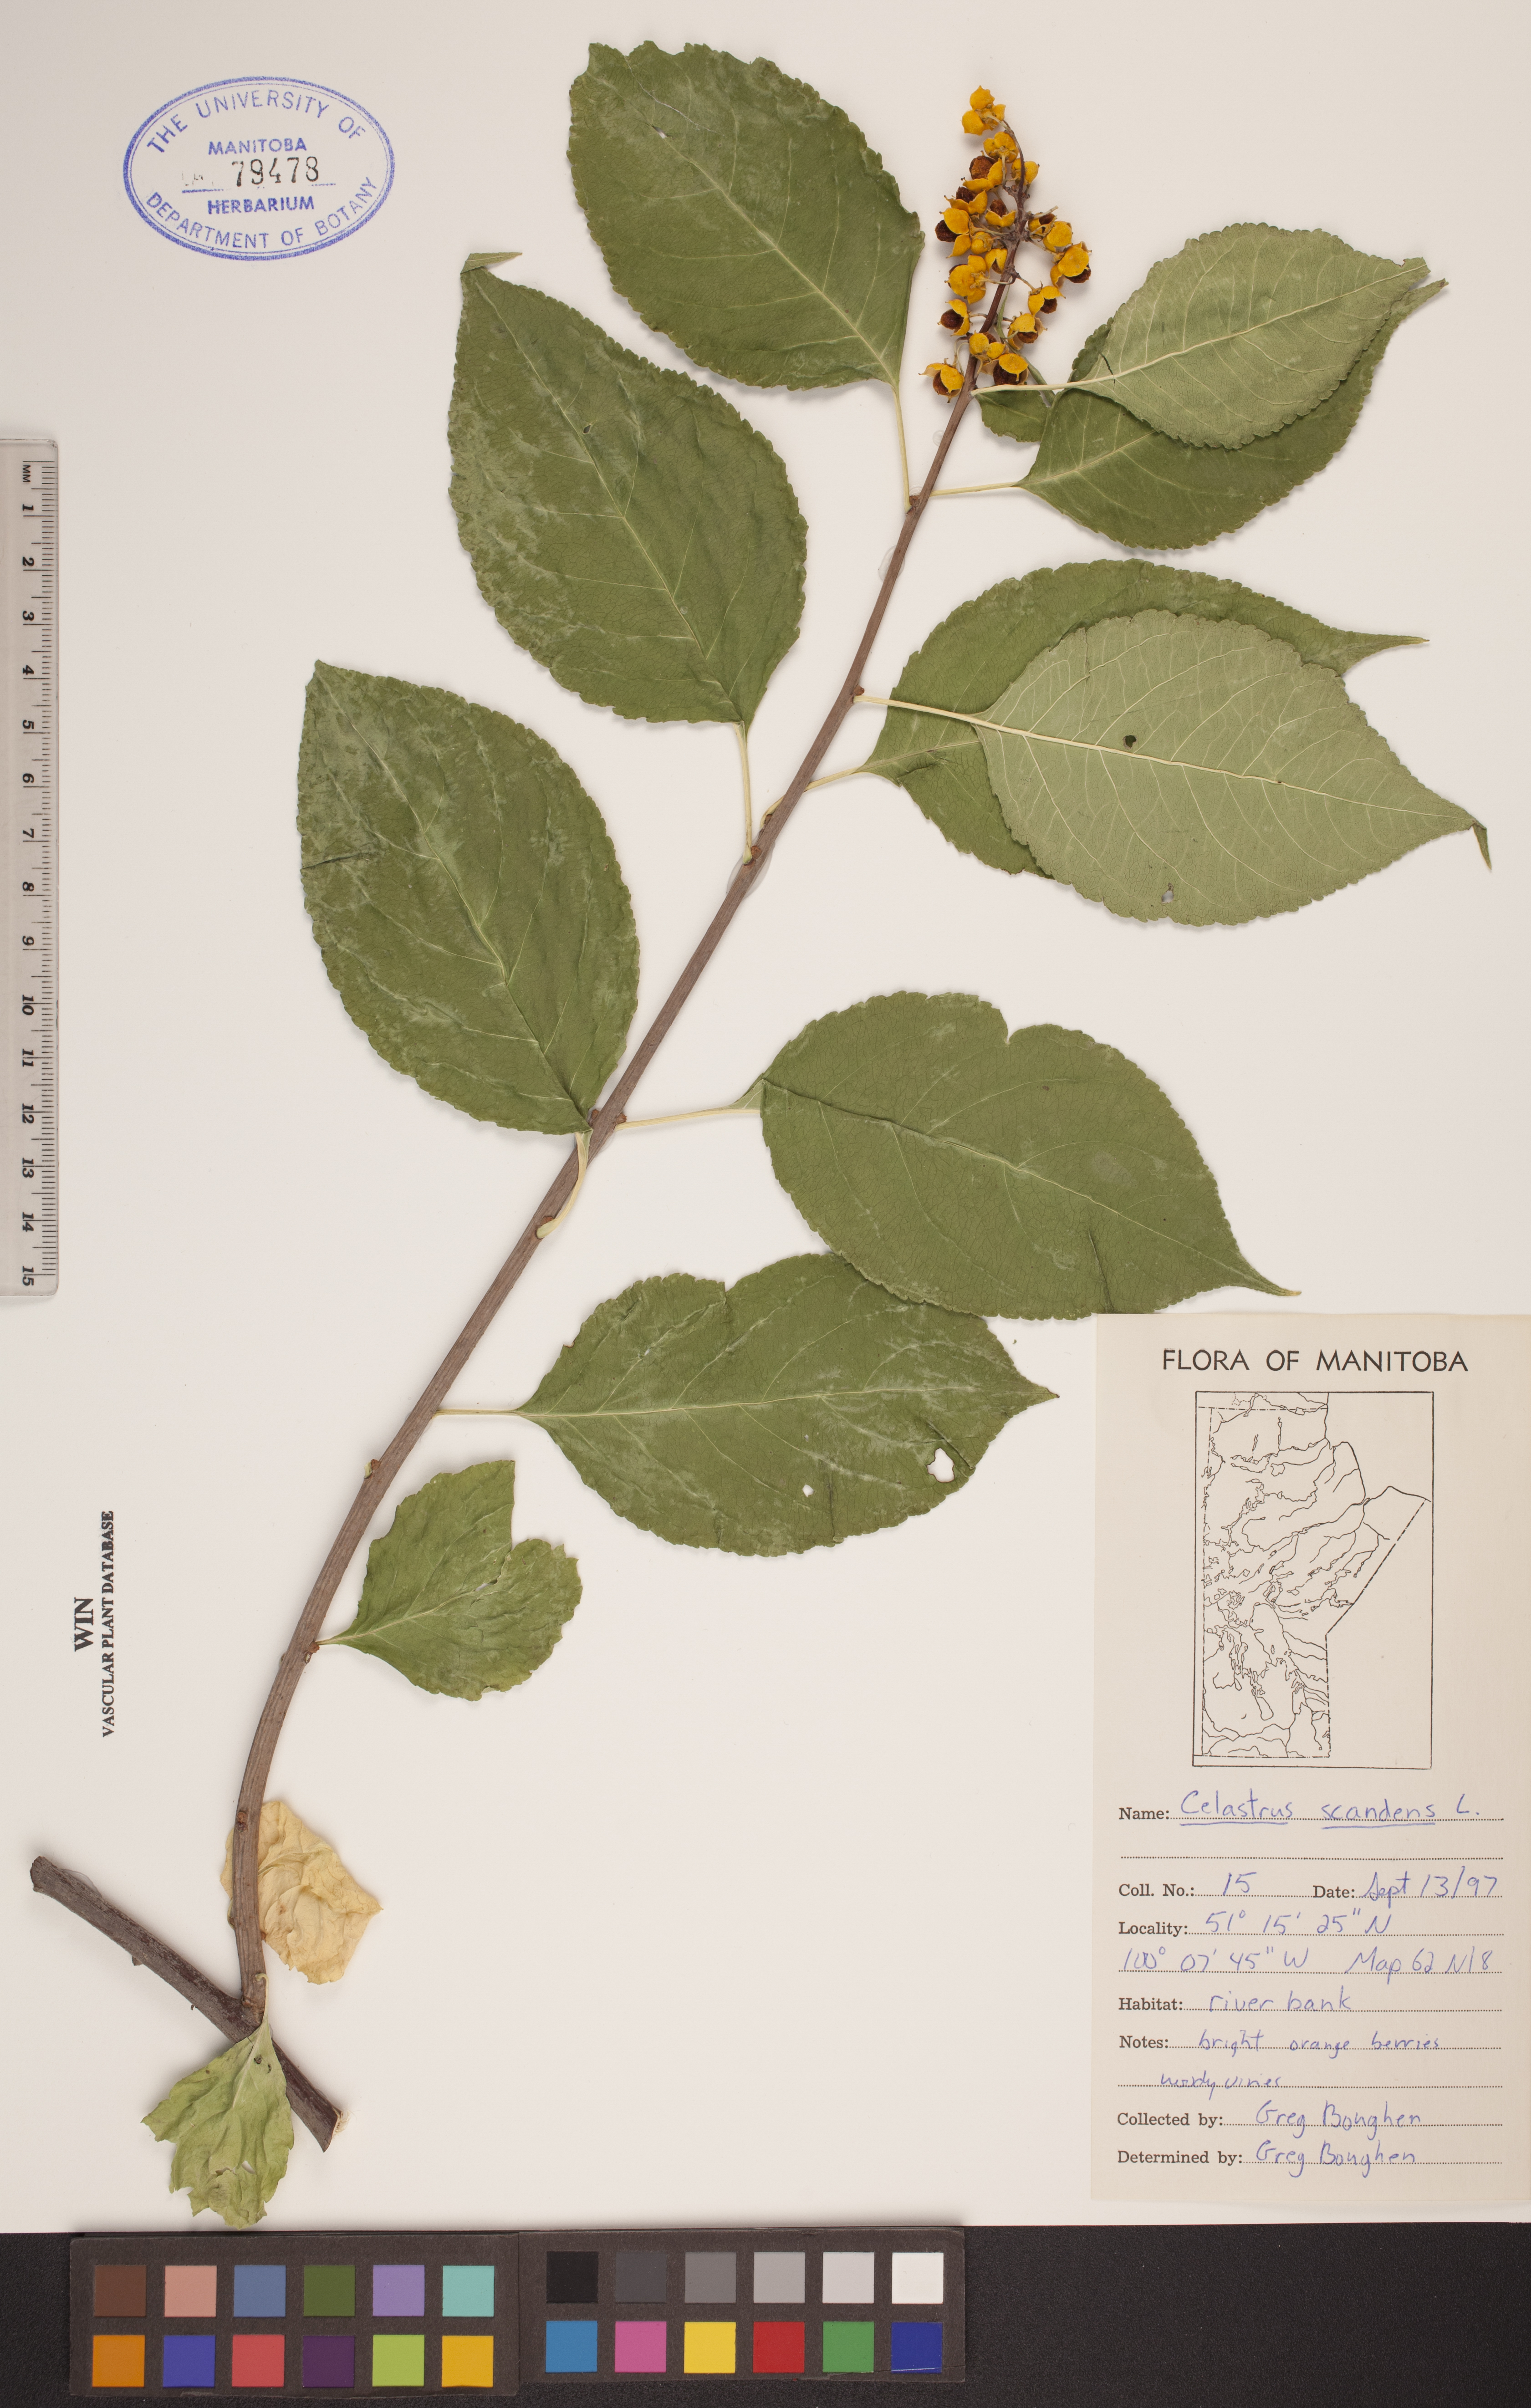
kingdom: Plantae
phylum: Tracheophyta
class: Magnoliopsida
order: Celastrales
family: Celastraceae
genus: Celastrus
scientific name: Celastrus scandens
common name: American bittersweet
